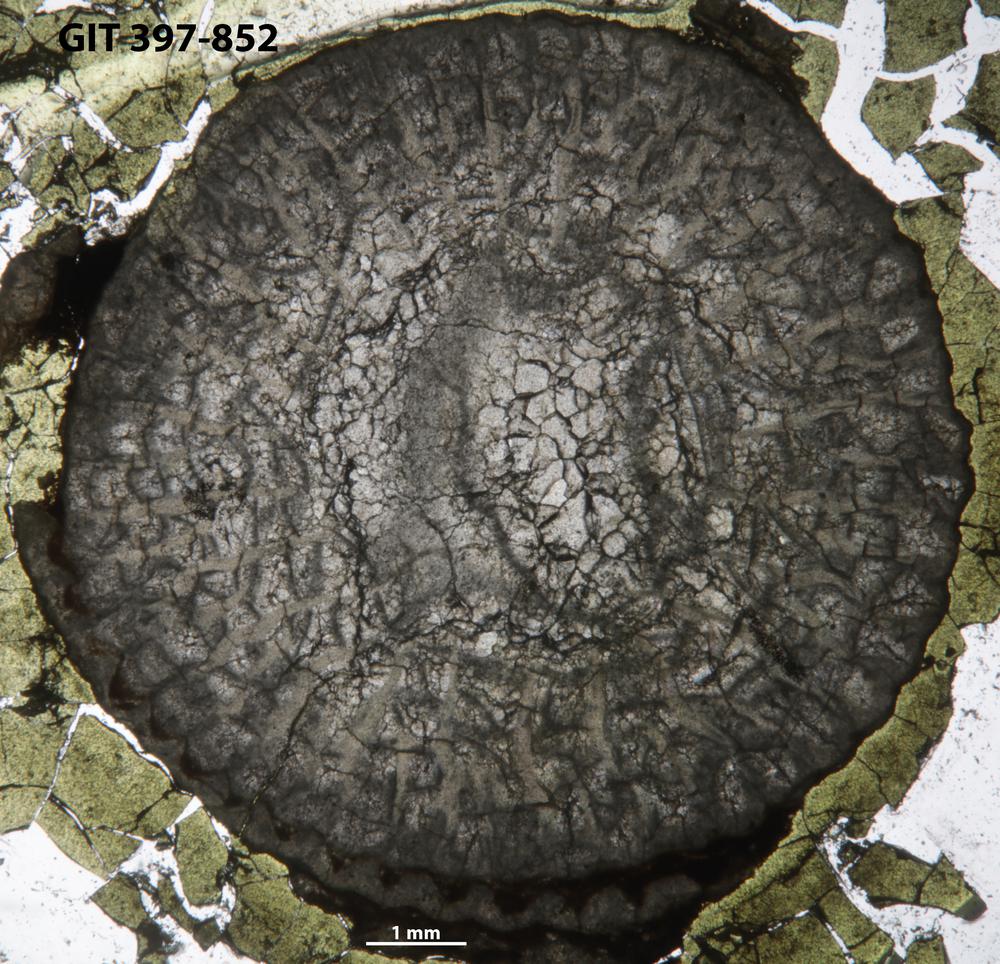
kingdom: Animalia
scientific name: Animalia
